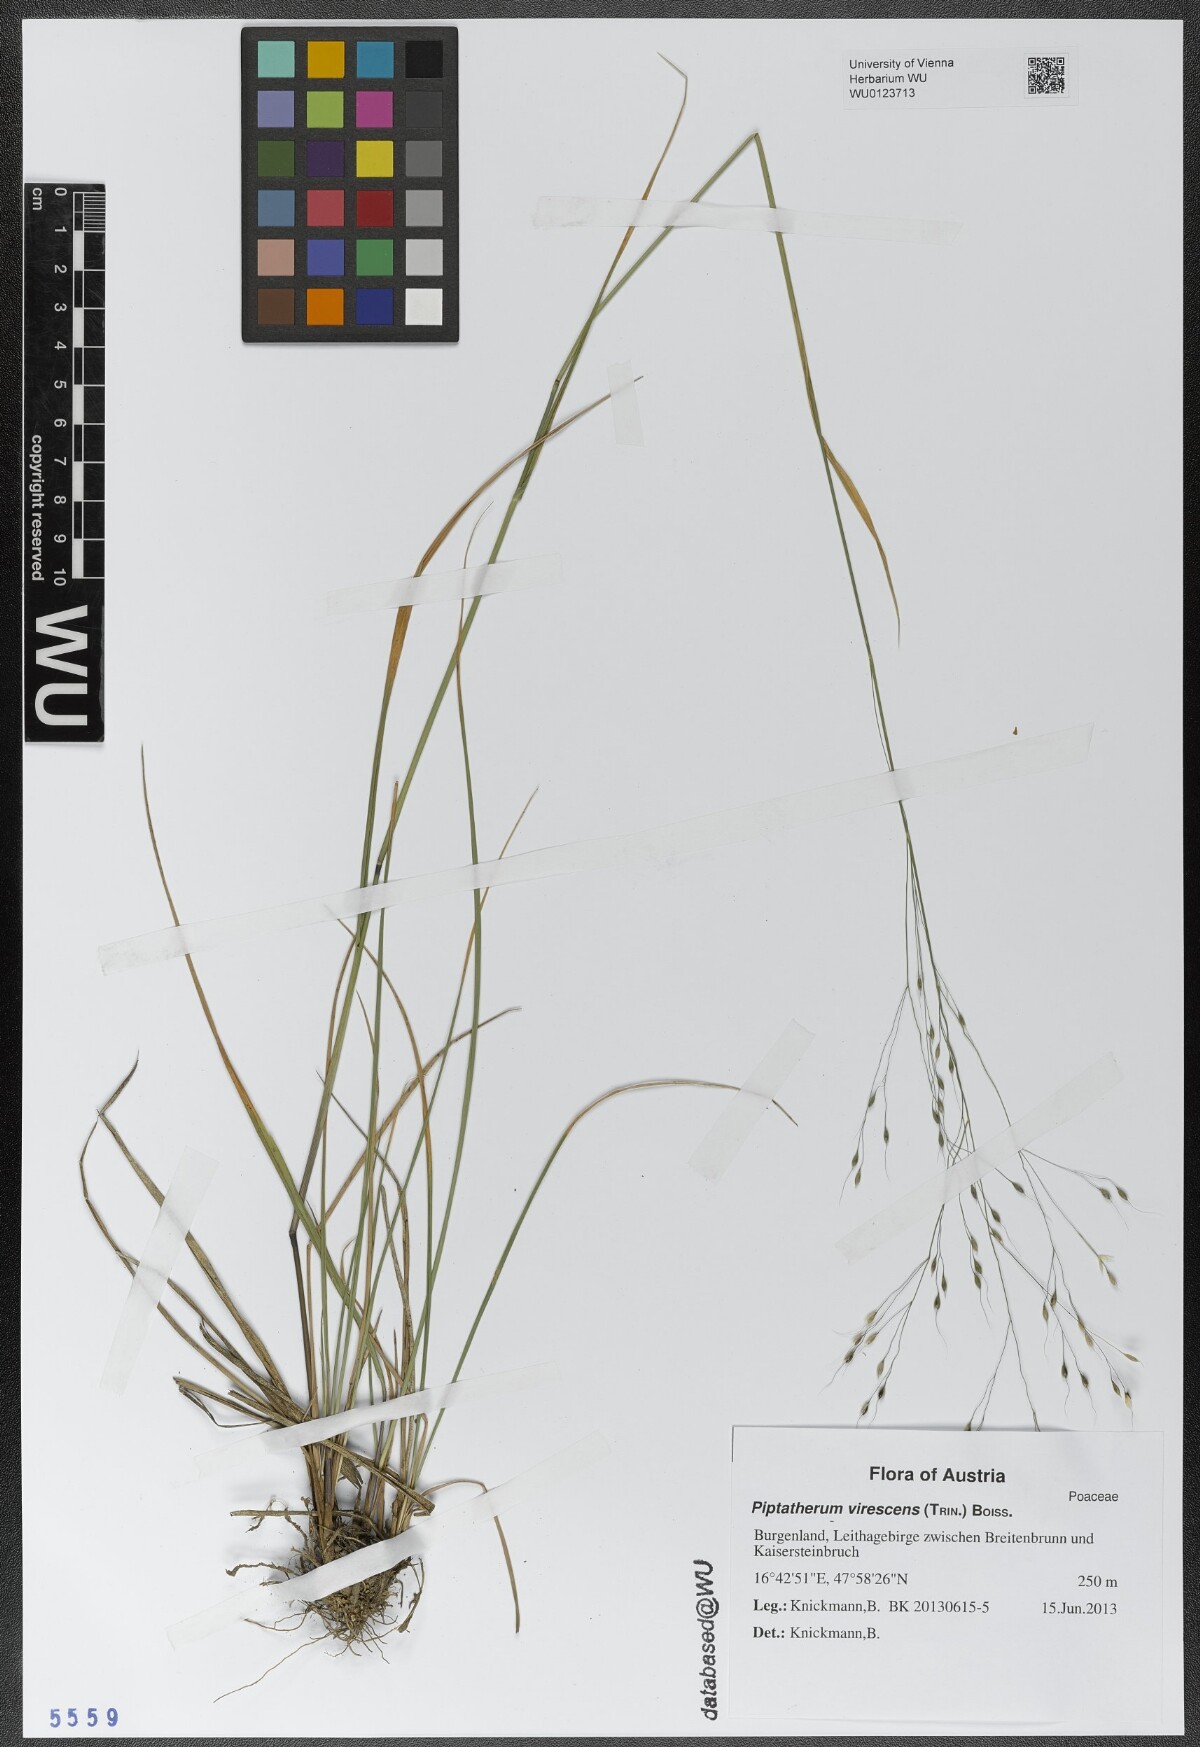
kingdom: Plantae
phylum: Tracheophyta
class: Liliopsida
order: Poales
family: Poaceae
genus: Achnatherum
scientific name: Achnatherum virescens
